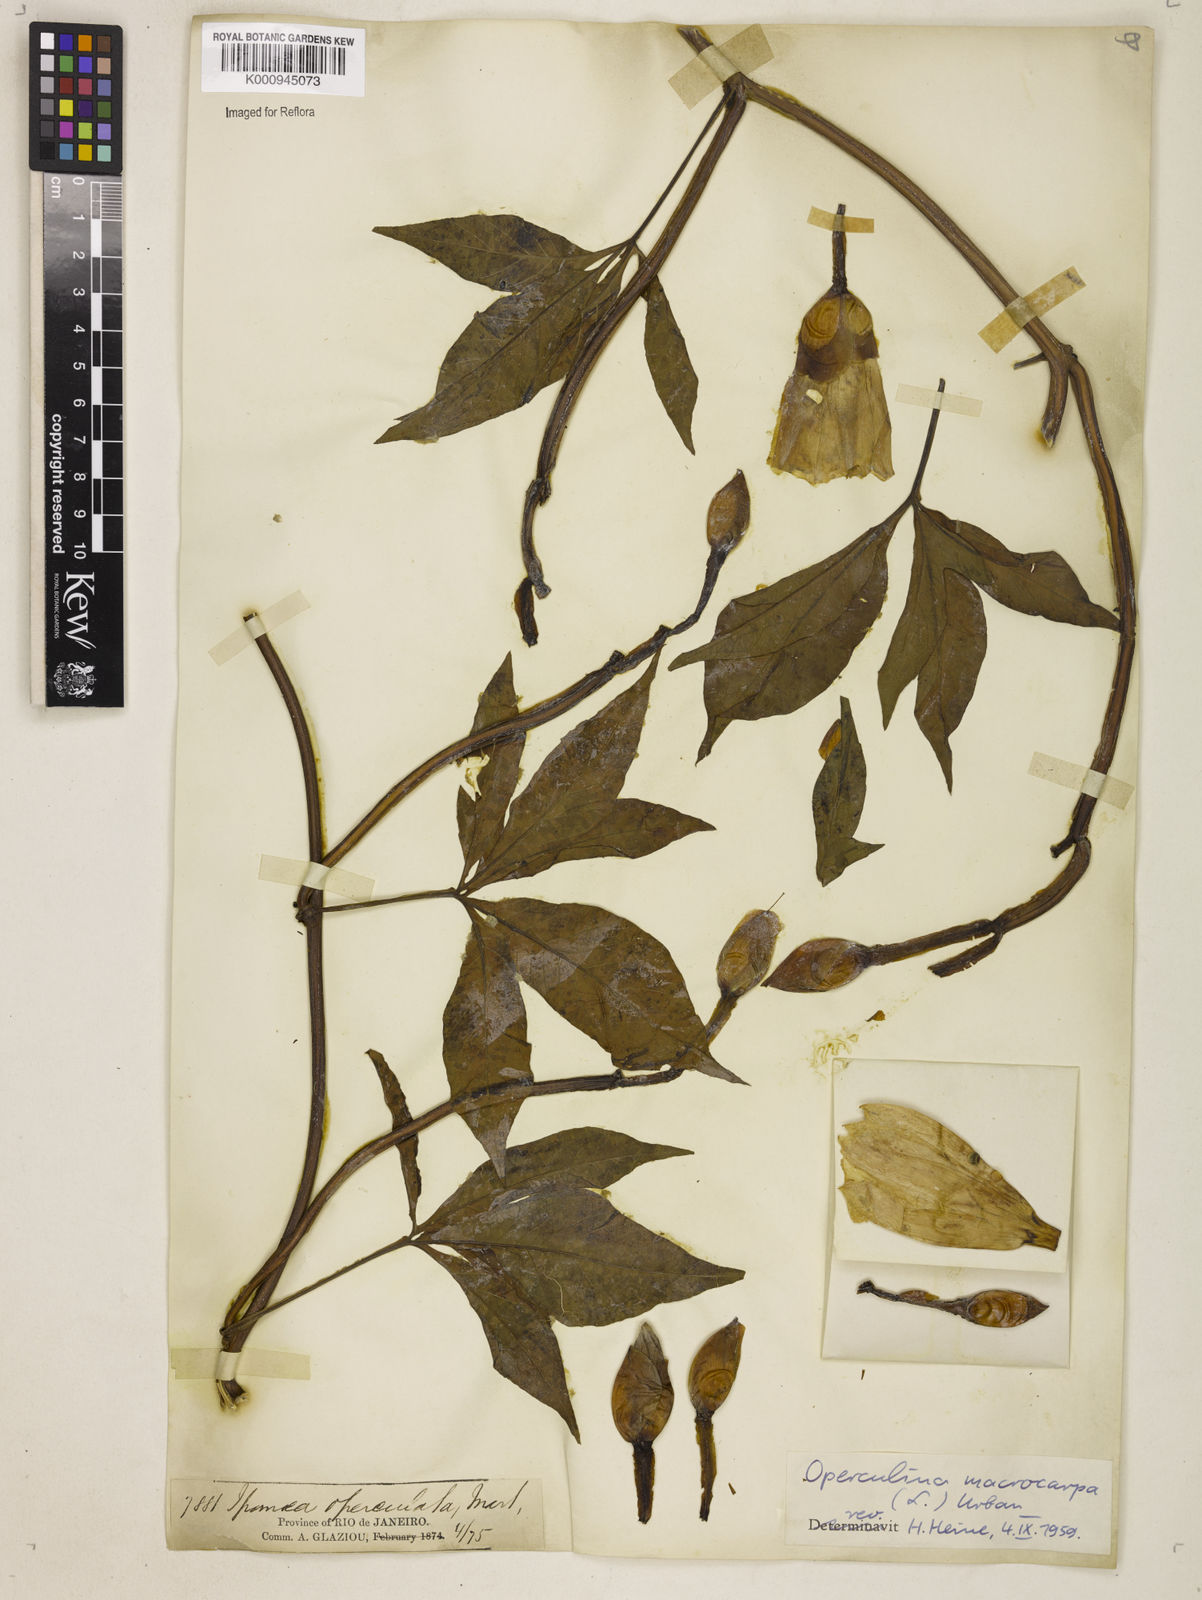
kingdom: Plantae
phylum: Tracheophyta
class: Magnoliopsida
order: Solanales
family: Convolvulaceae
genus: Operculina
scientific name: Operculina macrocarpa
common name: Brazilian jalap
